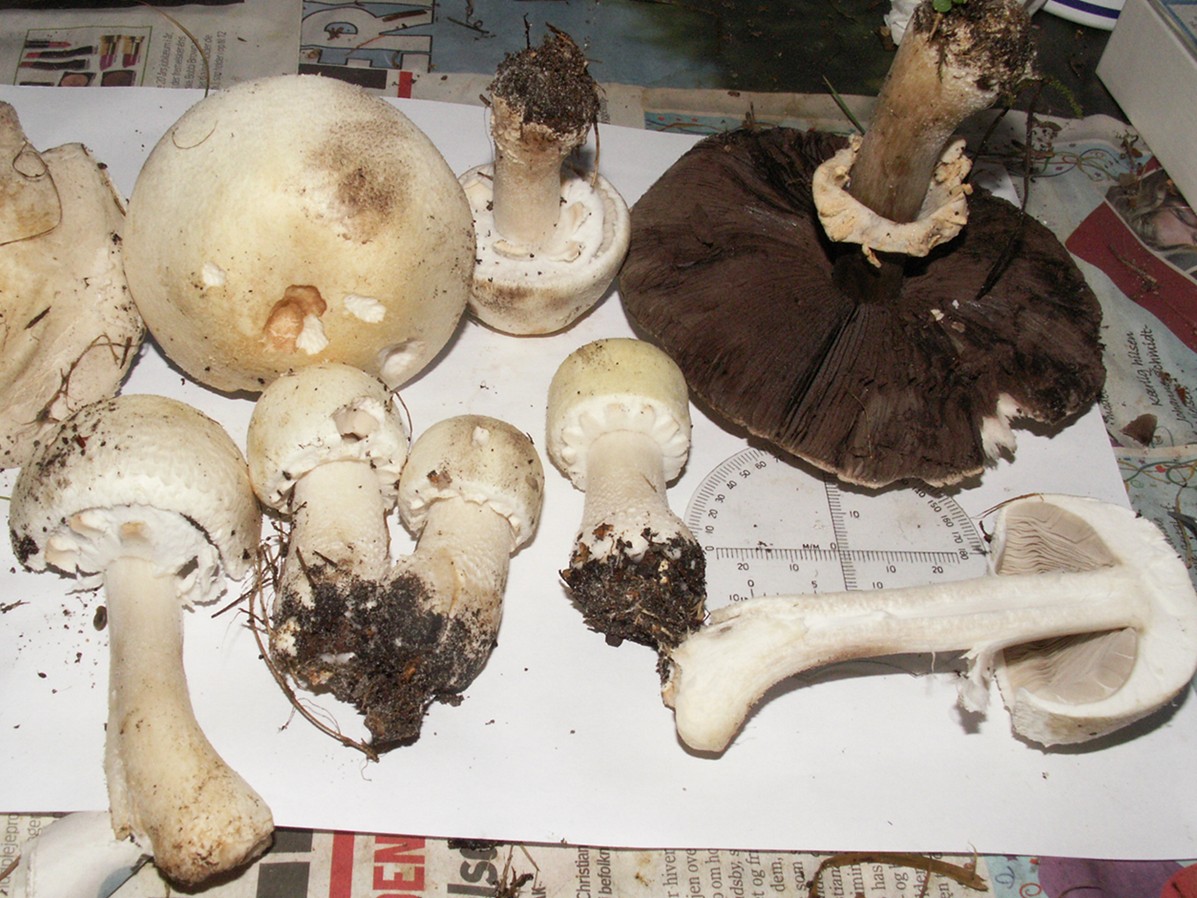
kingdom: Fungi
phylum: Basidiomycota
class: Agaricomycetes
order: Agaricales
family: Agaricaceae
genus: Agaricus
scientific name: Agaricus arvensis
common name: ager-champignon
